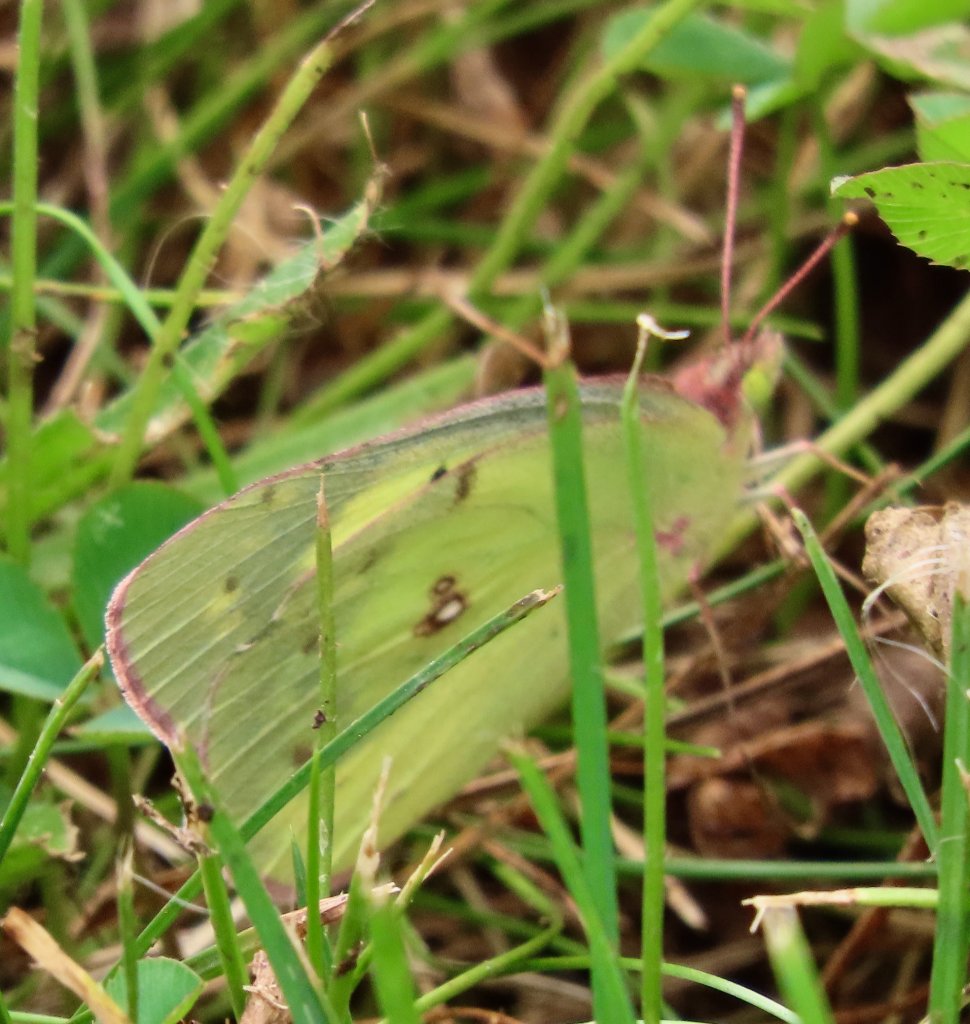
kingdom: Animalia
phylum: Arthropoda
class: Insecta
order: Lepidoptera
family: Pieridae
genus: Colias
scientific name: Colias philodice
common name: Clouded Sulphur
